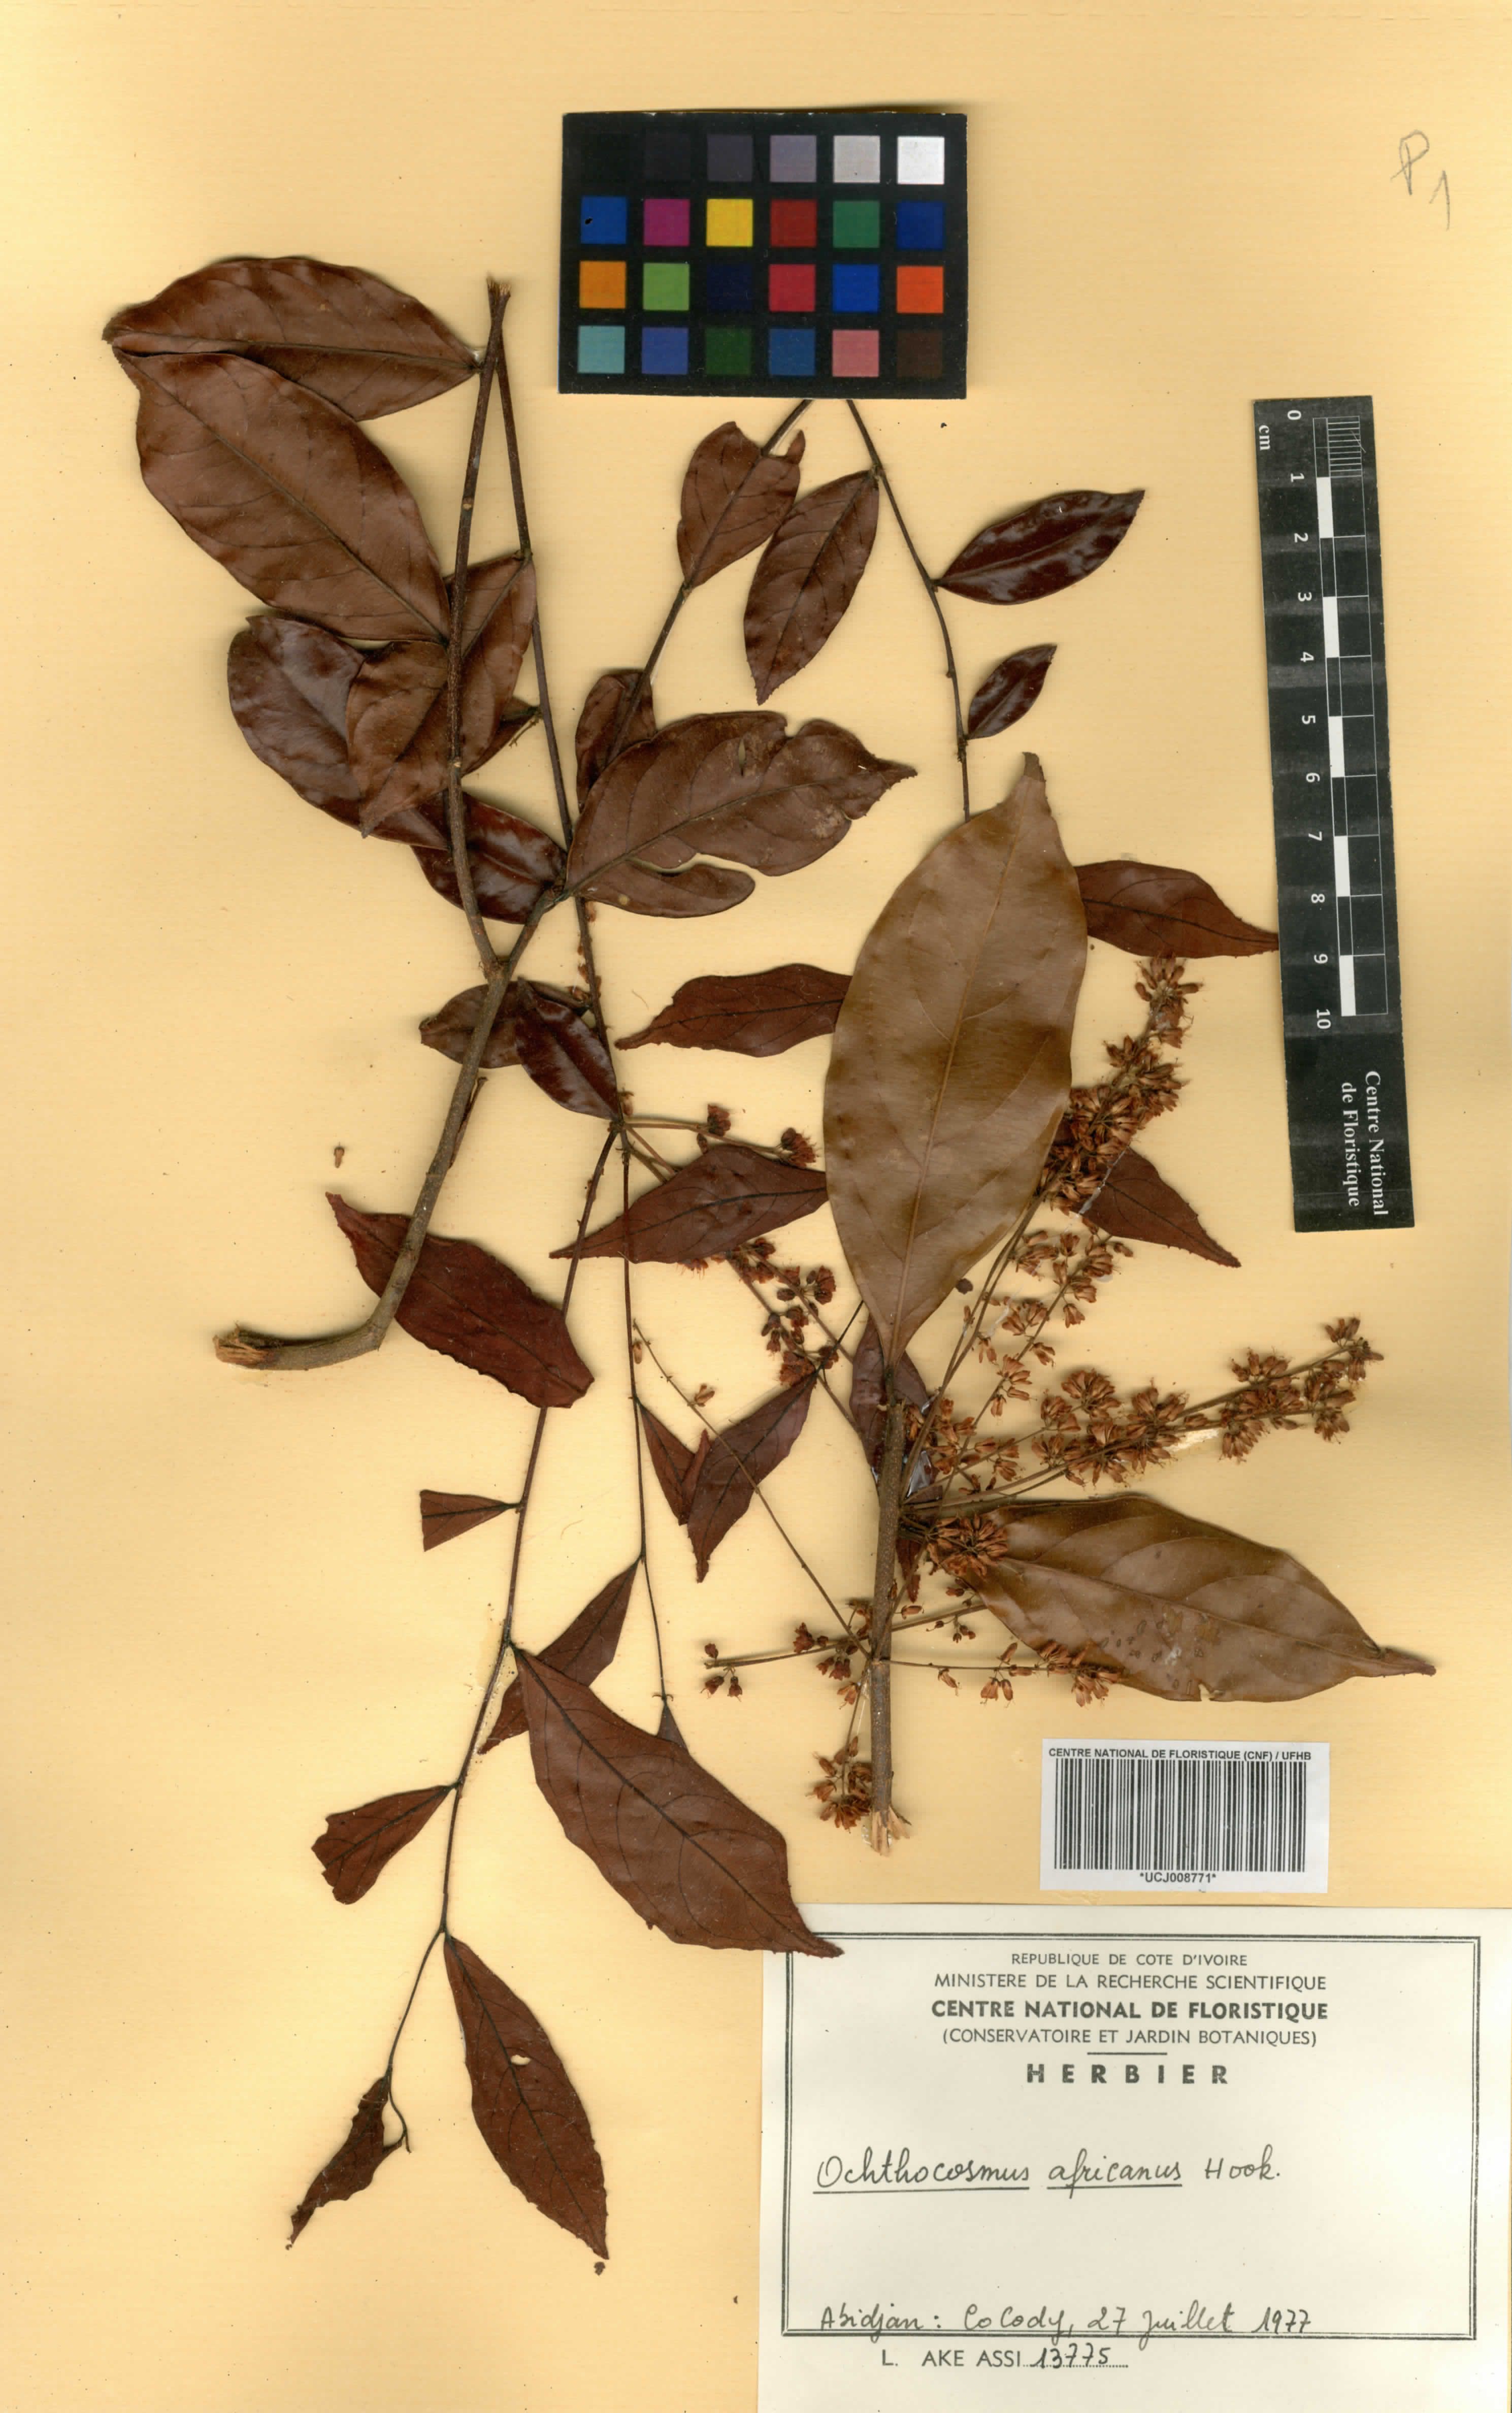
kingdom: Plantae
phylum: Tracheophyta
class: Magnoliopsida
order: Malpighiales
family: Ixonanthaceae
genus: Phyllocosmus
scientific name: Phyllocosmus africanus
